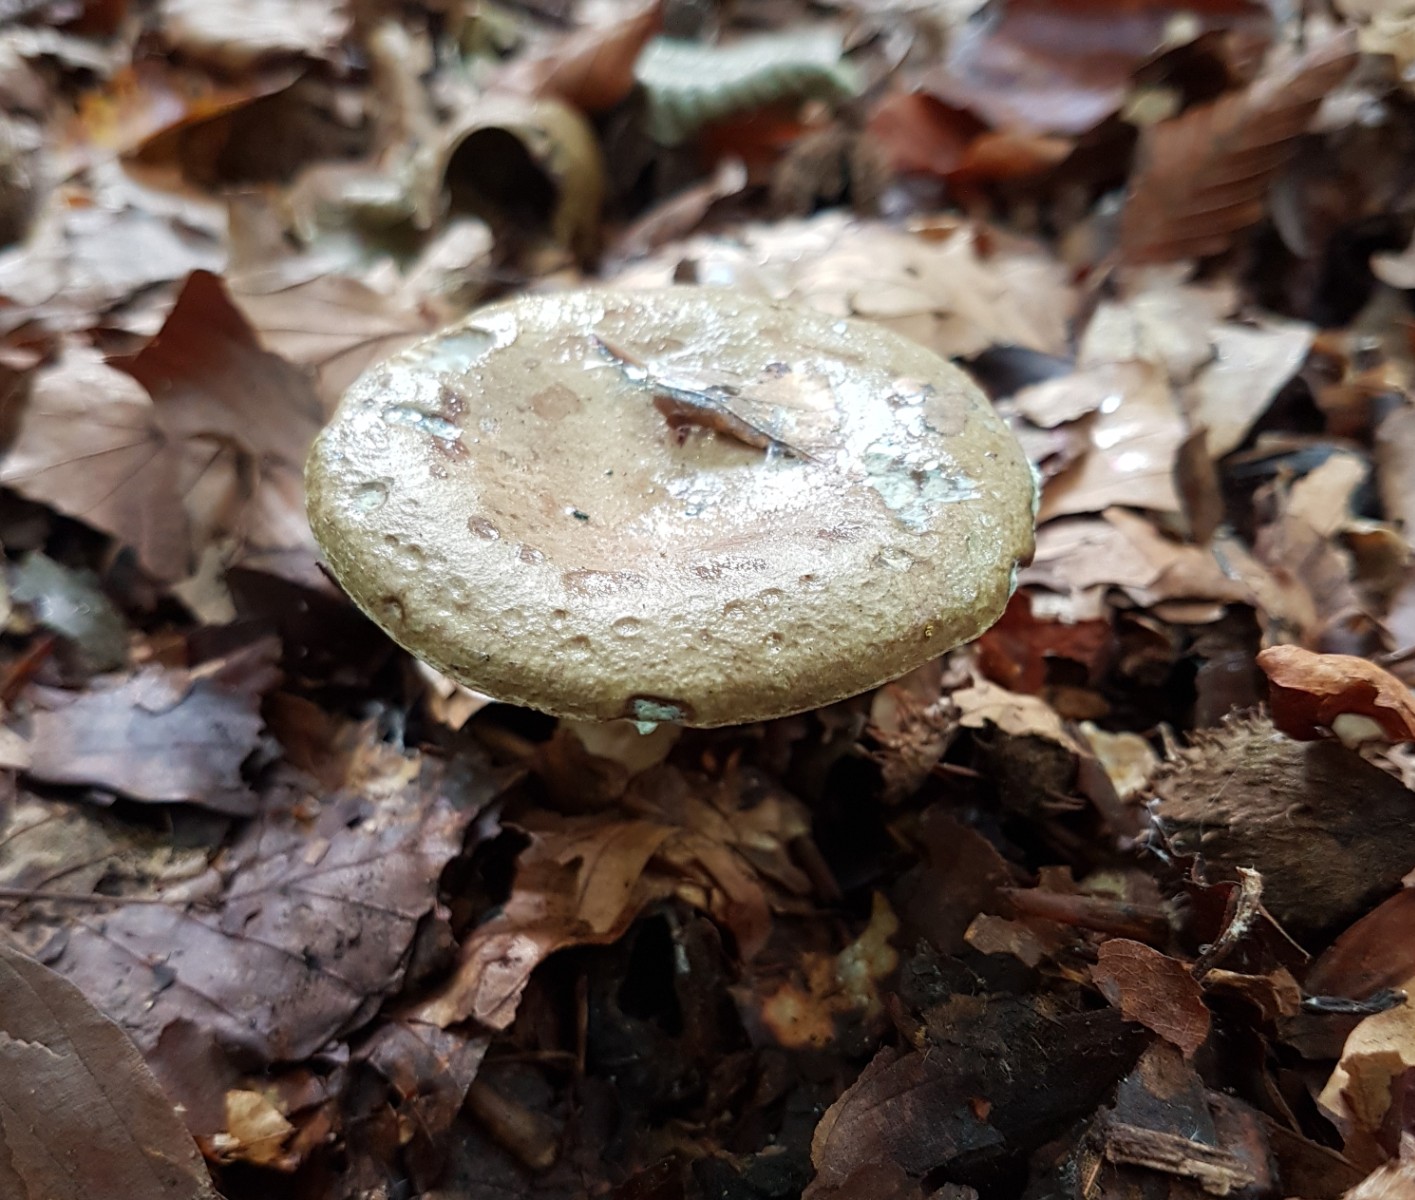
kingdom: Fungi
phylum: Basidiomycota
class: Agaricomycetes
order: Russulales
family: Russulaceae
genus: Lactarius
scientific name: Lactarius blennius
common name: dråbeplettet mælkehat
